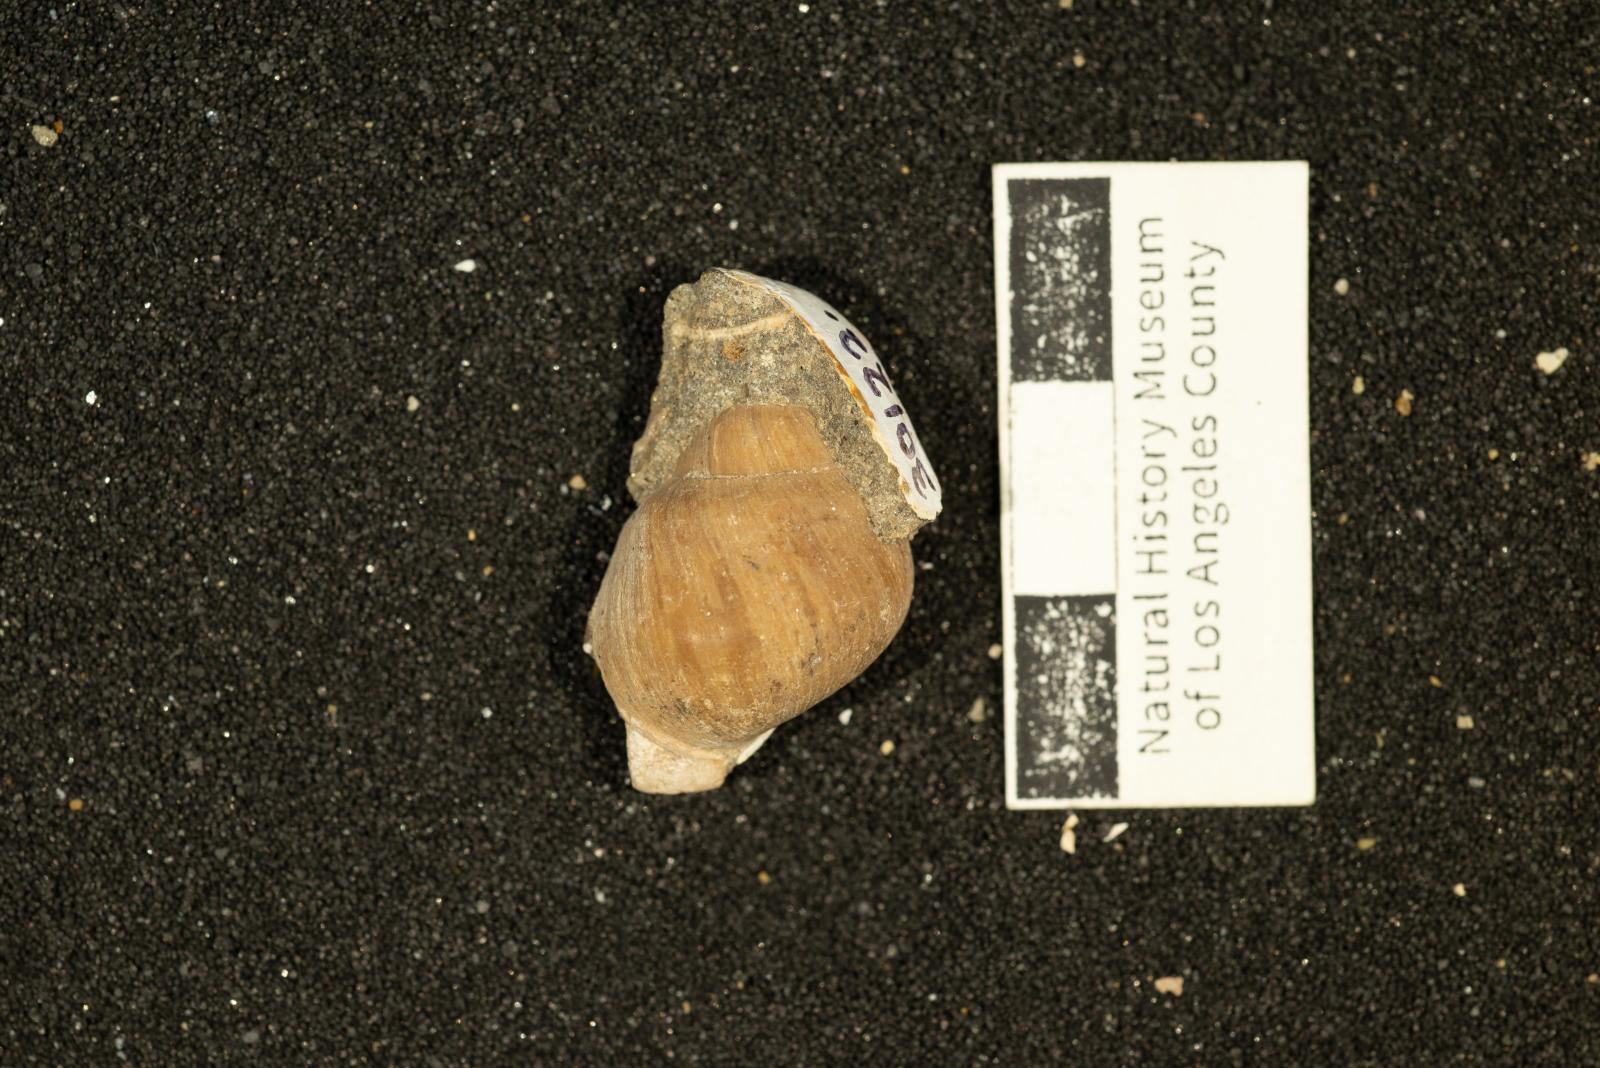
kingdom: Animalia
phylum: Mollusca
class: Gastropoda
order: Architaenioglossa
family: Ampullinidae
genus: Ampullina
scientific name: Ampullina Amauropsis pseudoalveata
